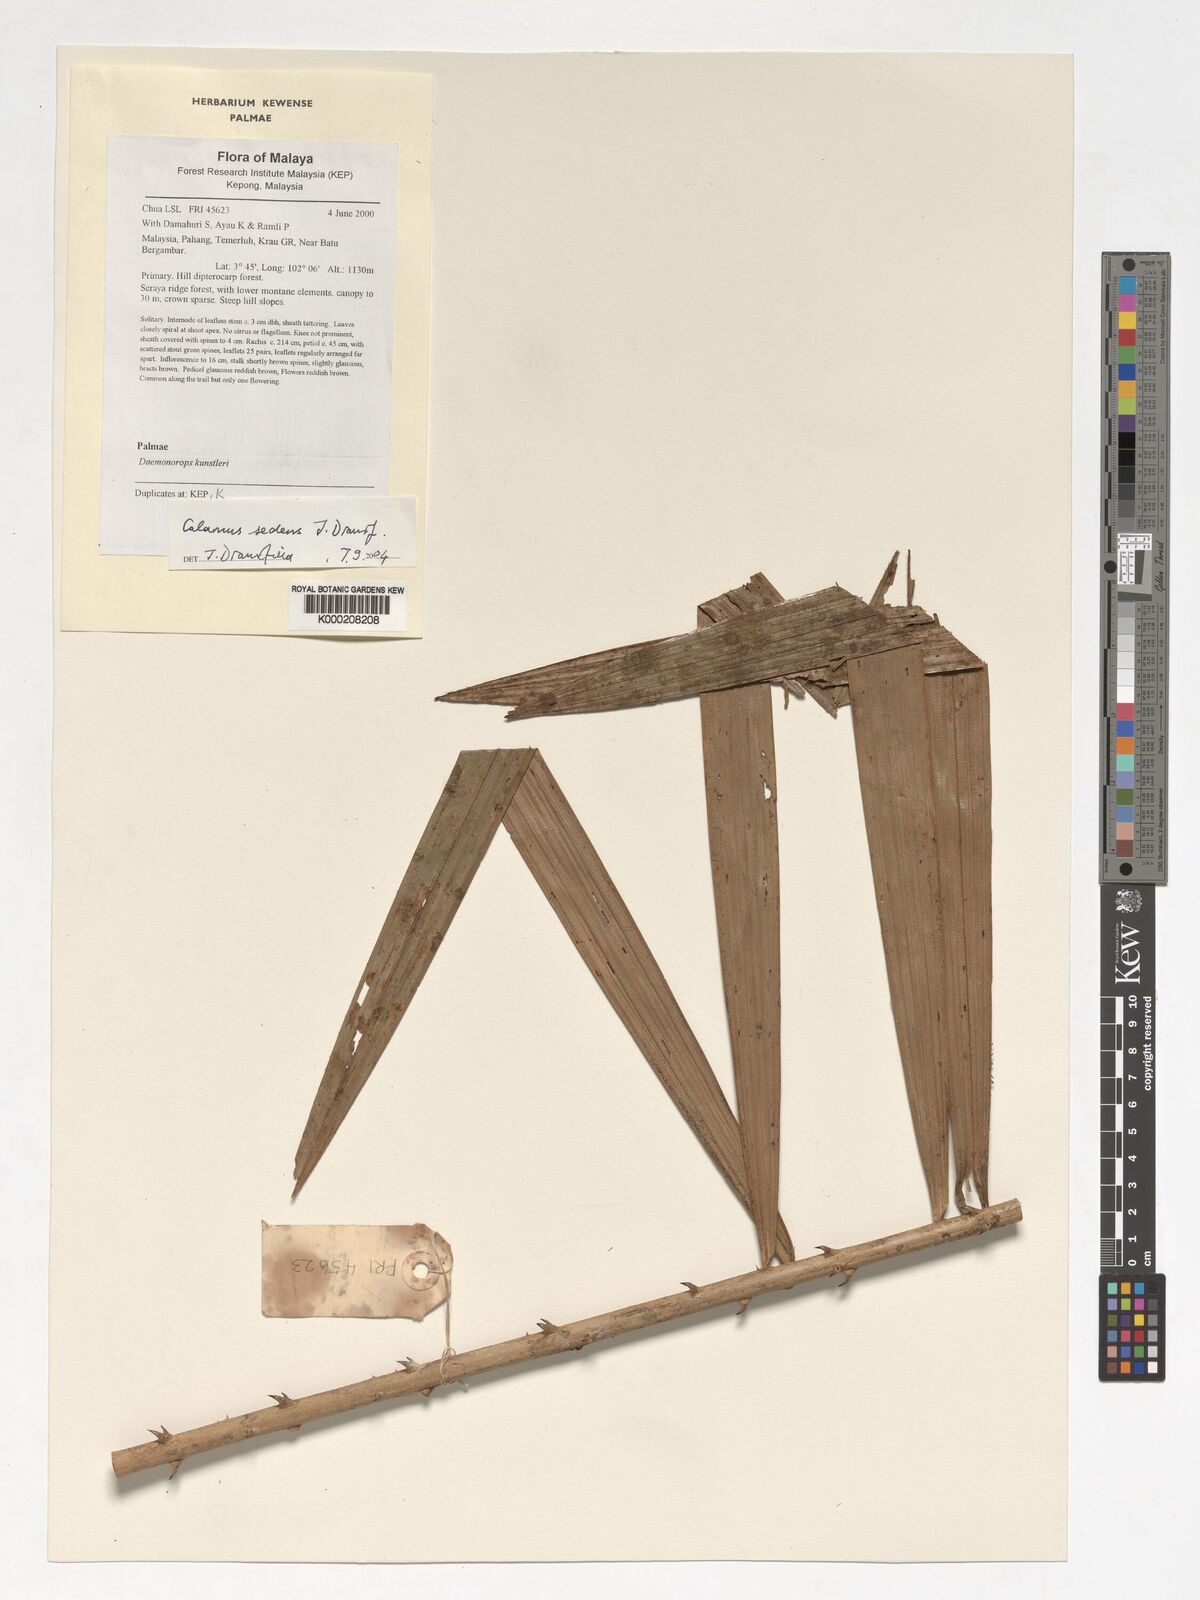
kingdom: Plantae
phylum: Tracheophyta
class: Liliopsida
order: Arecales
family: Arecaceae
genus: Calamus
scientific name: Calamus sedens
